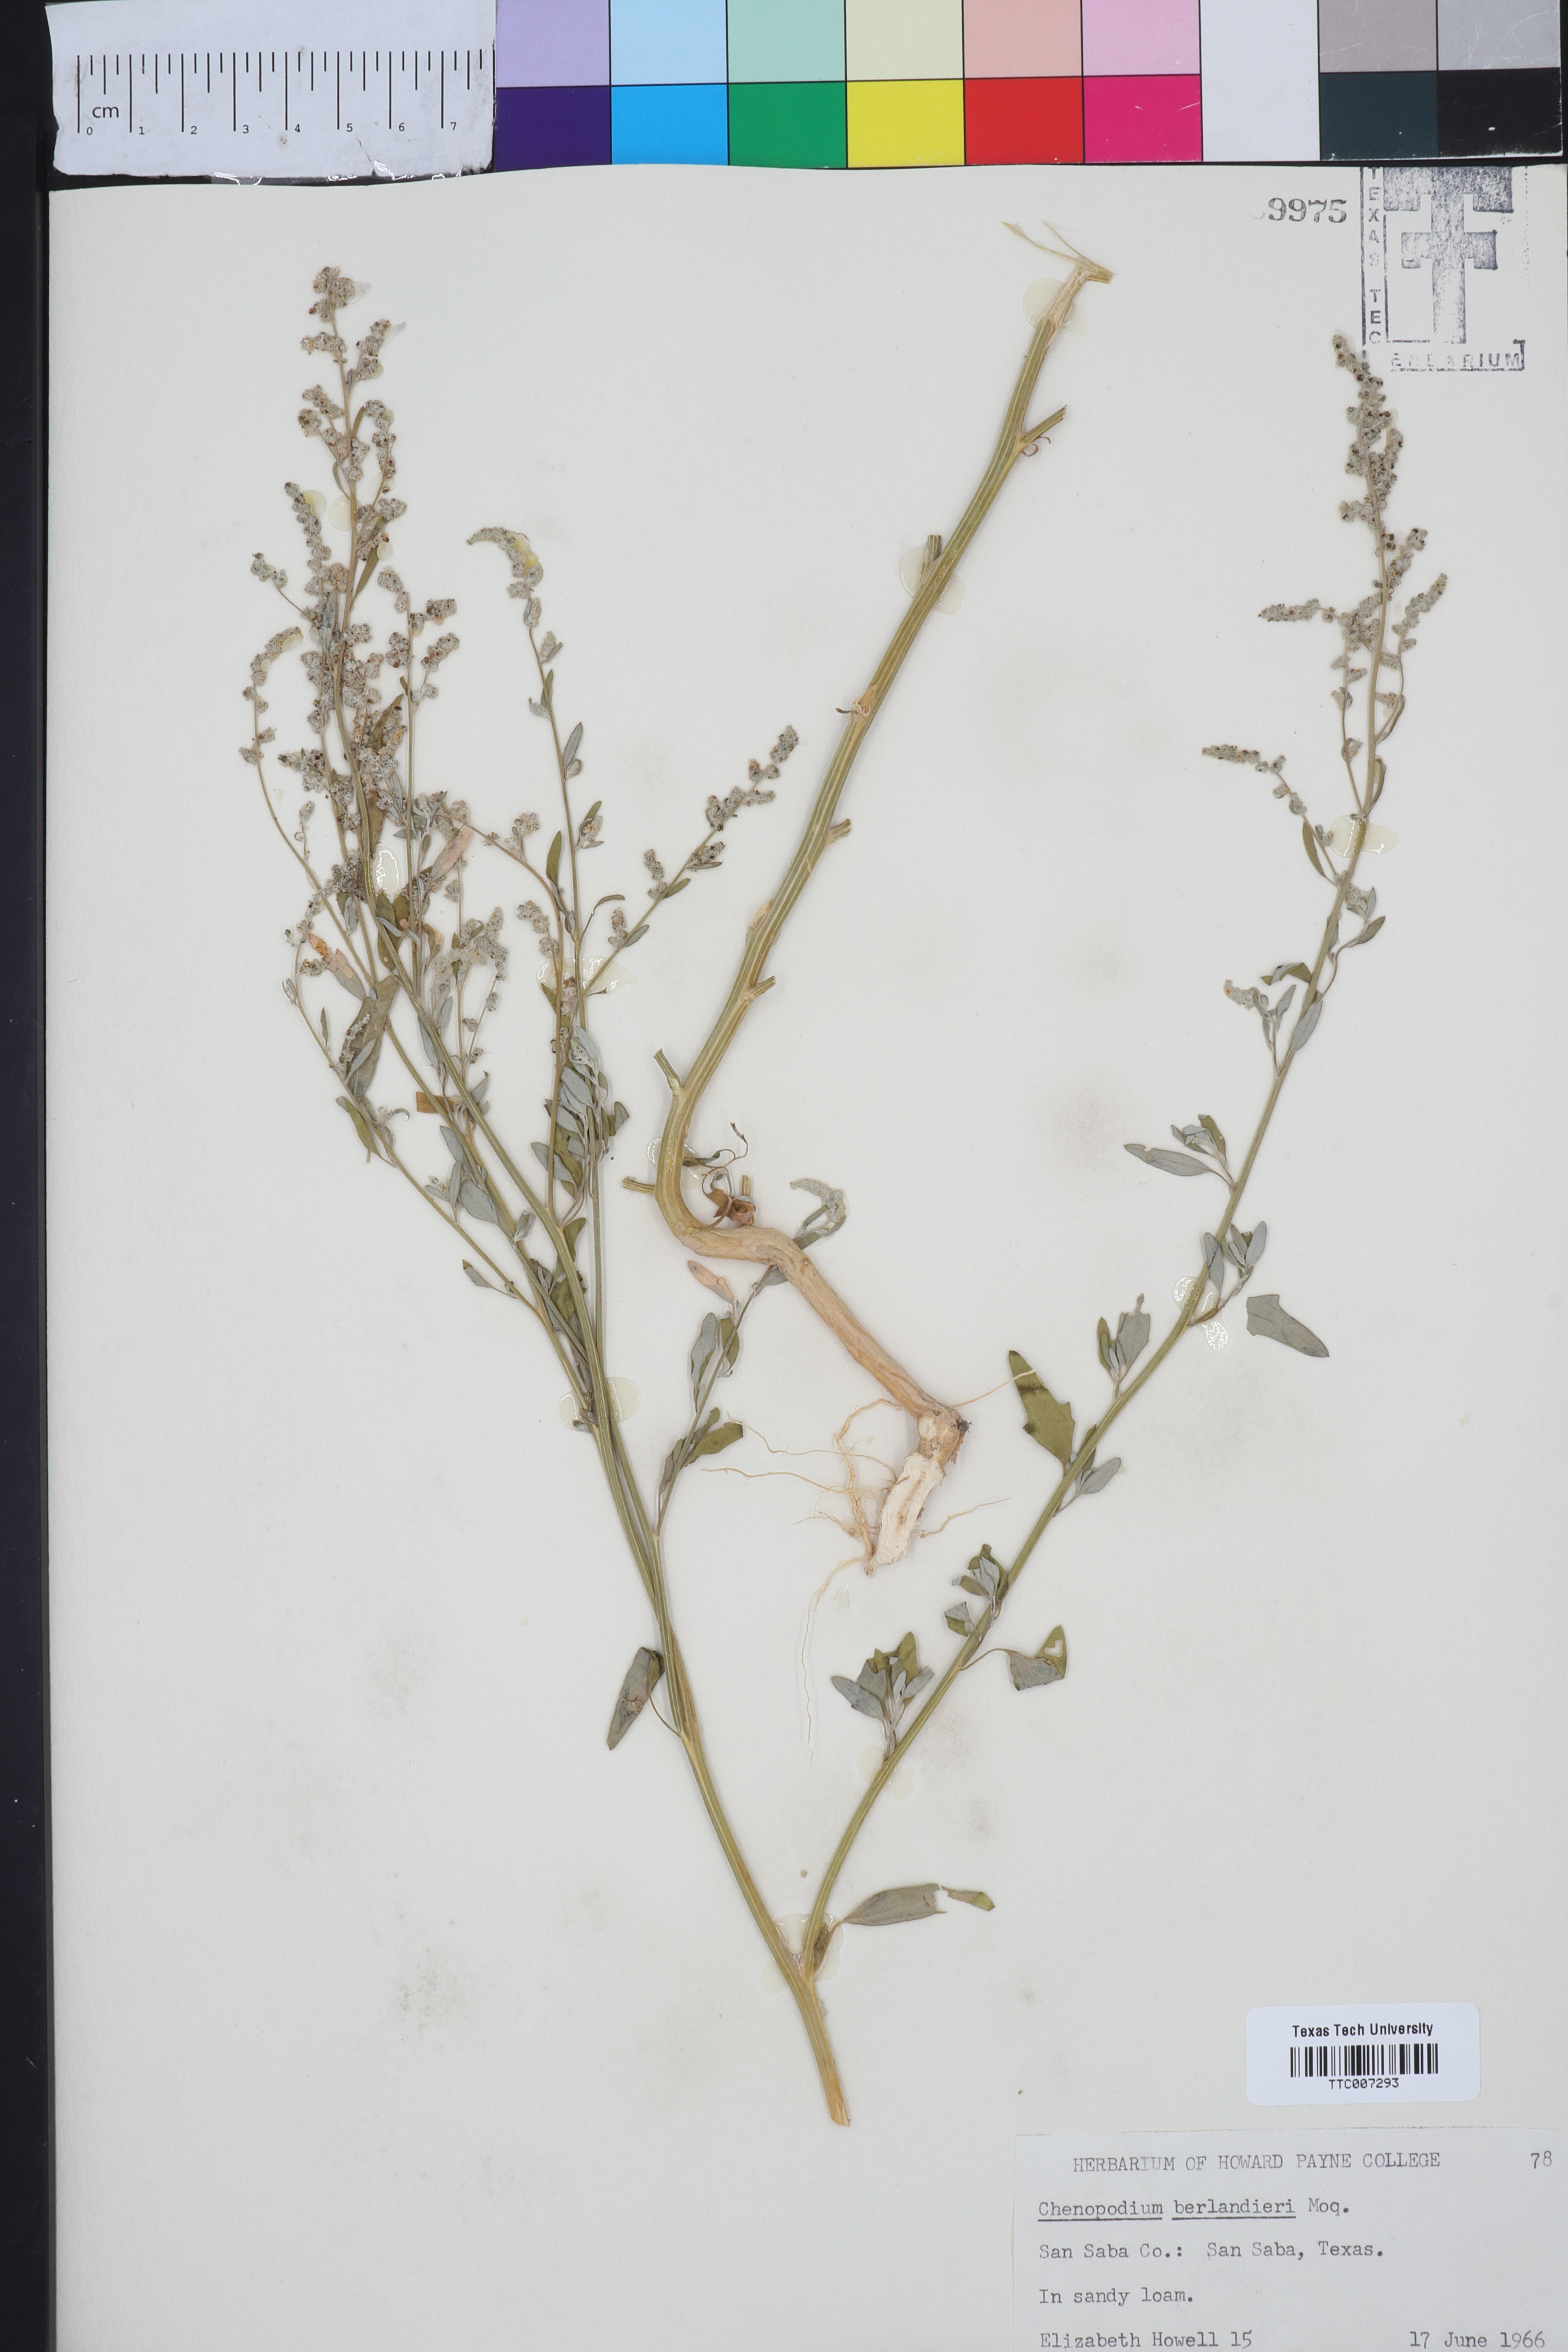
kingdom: Plantae
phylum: Tracheophyta
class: Magnoliopsida
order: Caryophyllales
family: Amaranthaceae
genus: Chenopodium
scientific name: Chenopodium berlandieri
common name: Pit-seed goosefoot
